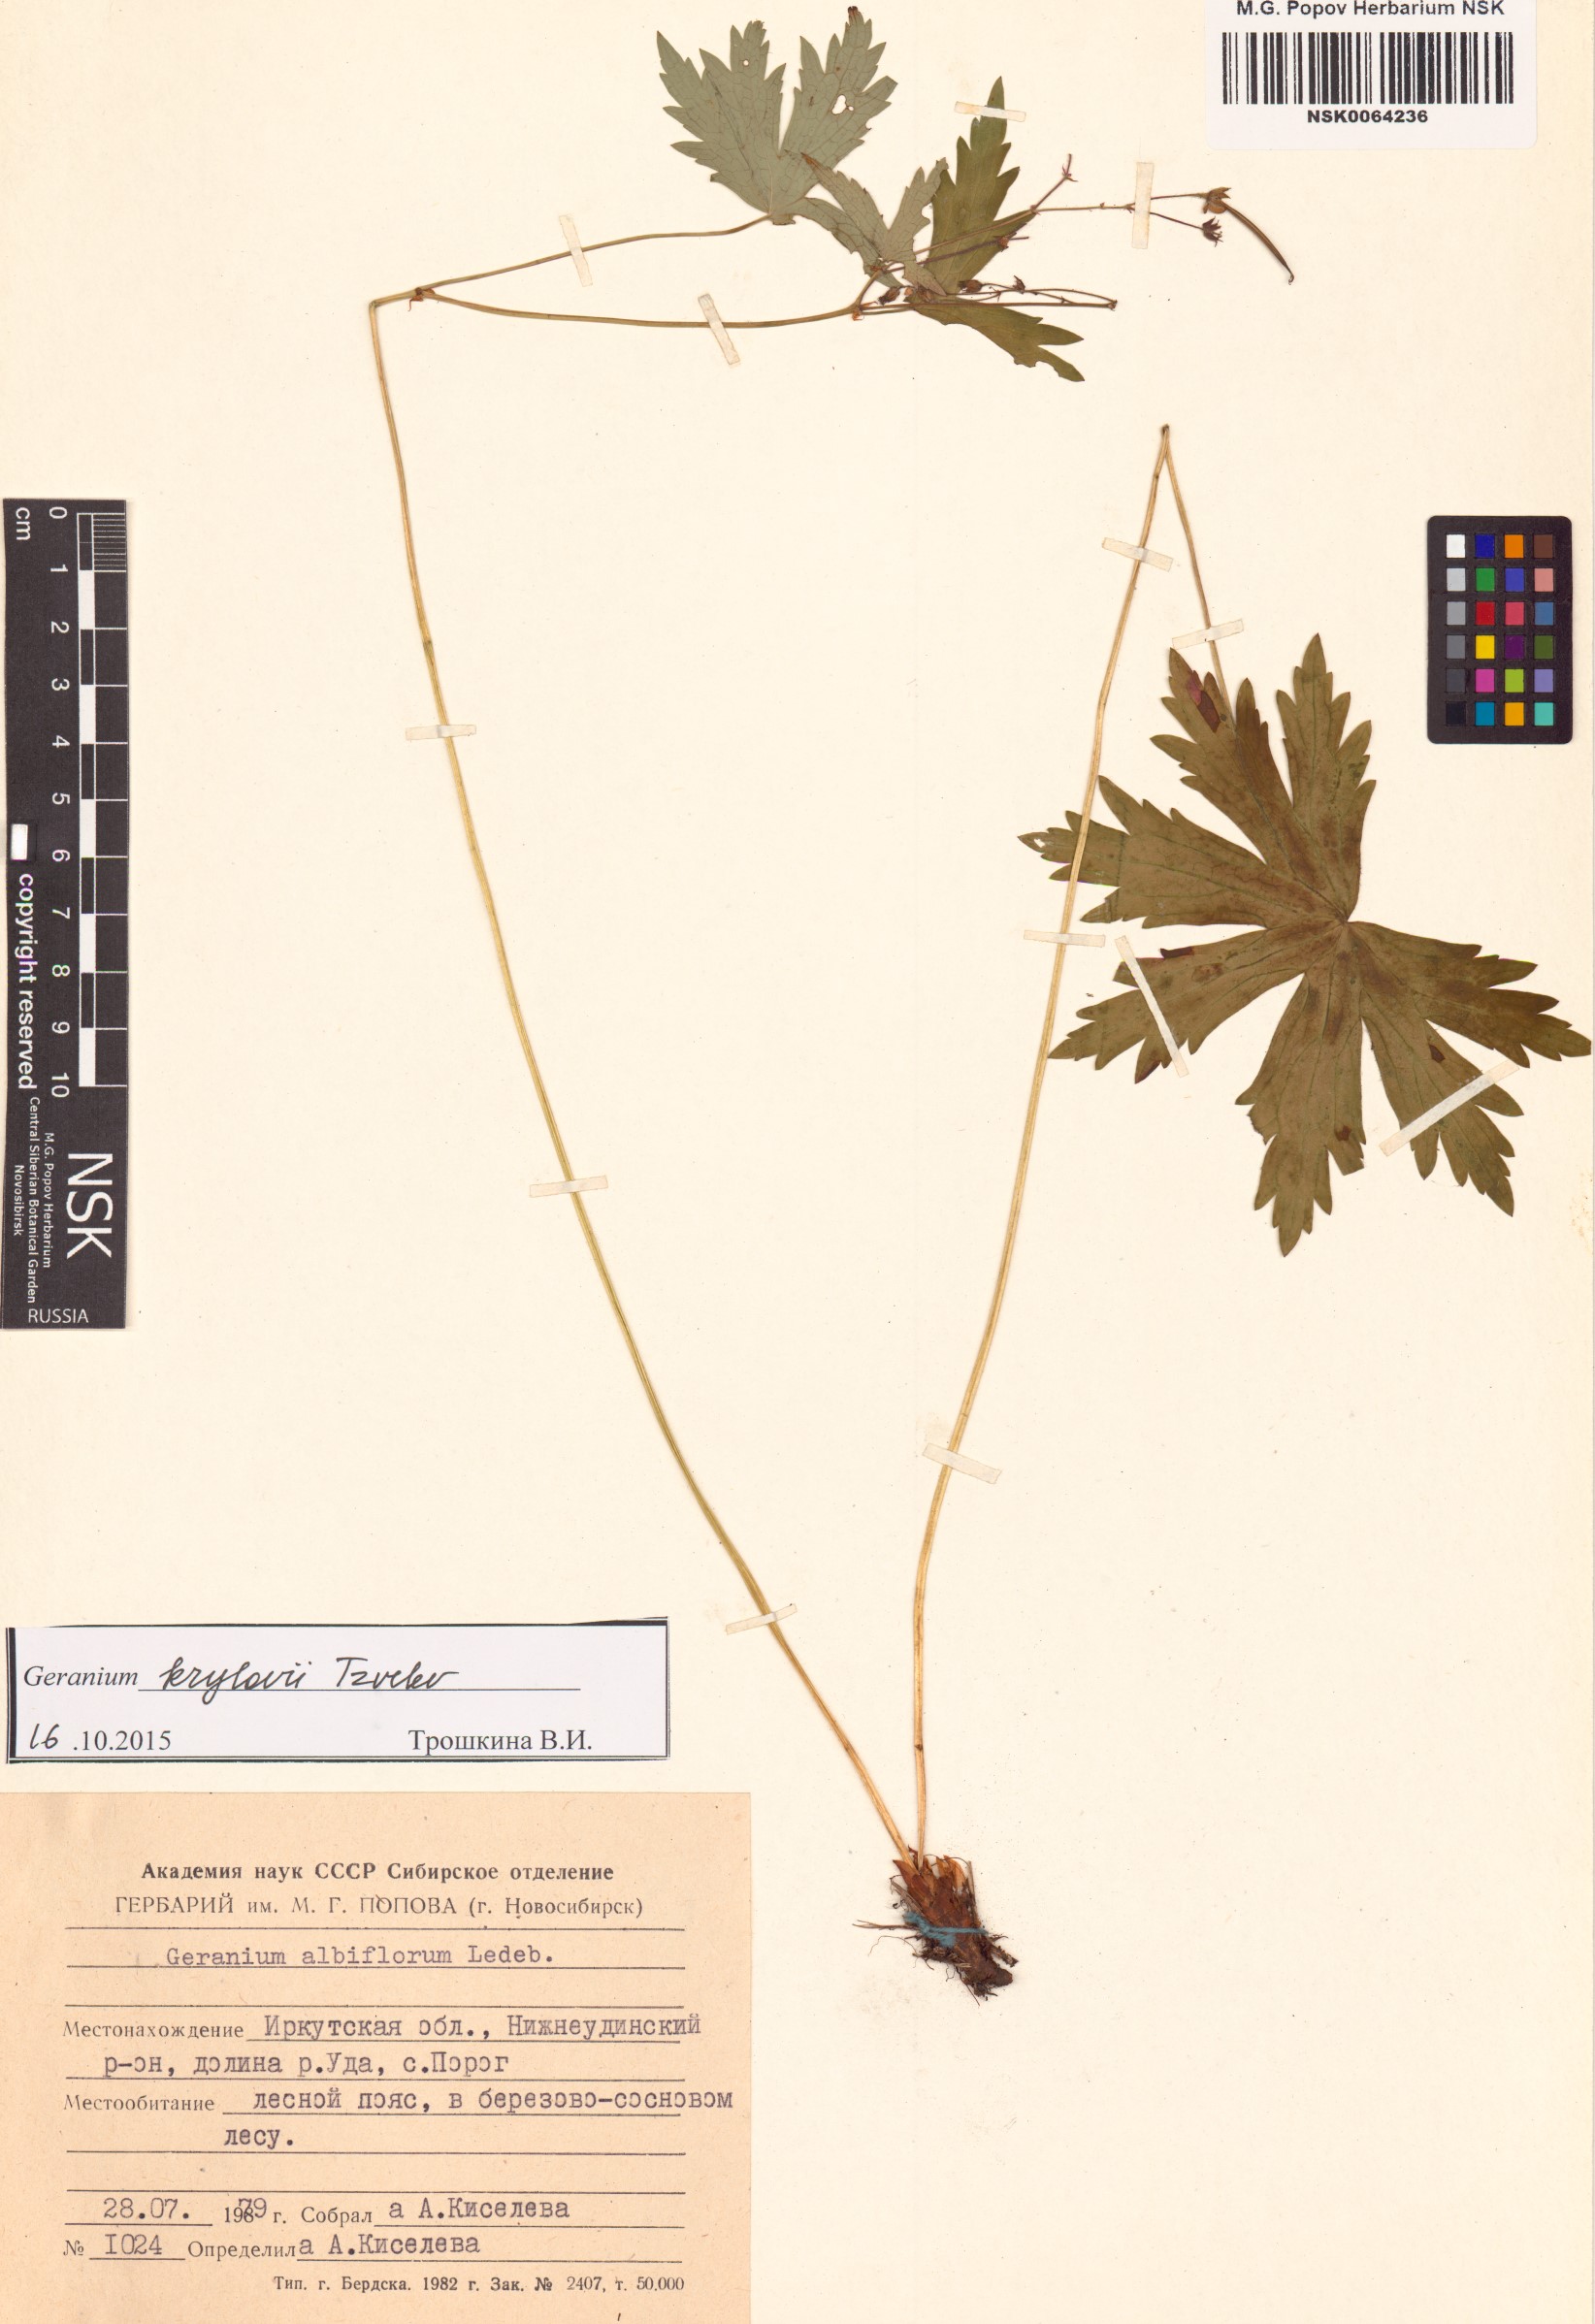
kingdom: Plantae
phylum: Tracheophyta
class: Magnoliopsida
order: Geraniales
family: Geraniaceae
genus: Geranium
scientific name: Geranium sylvaticum
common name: Wood crane's-bill
